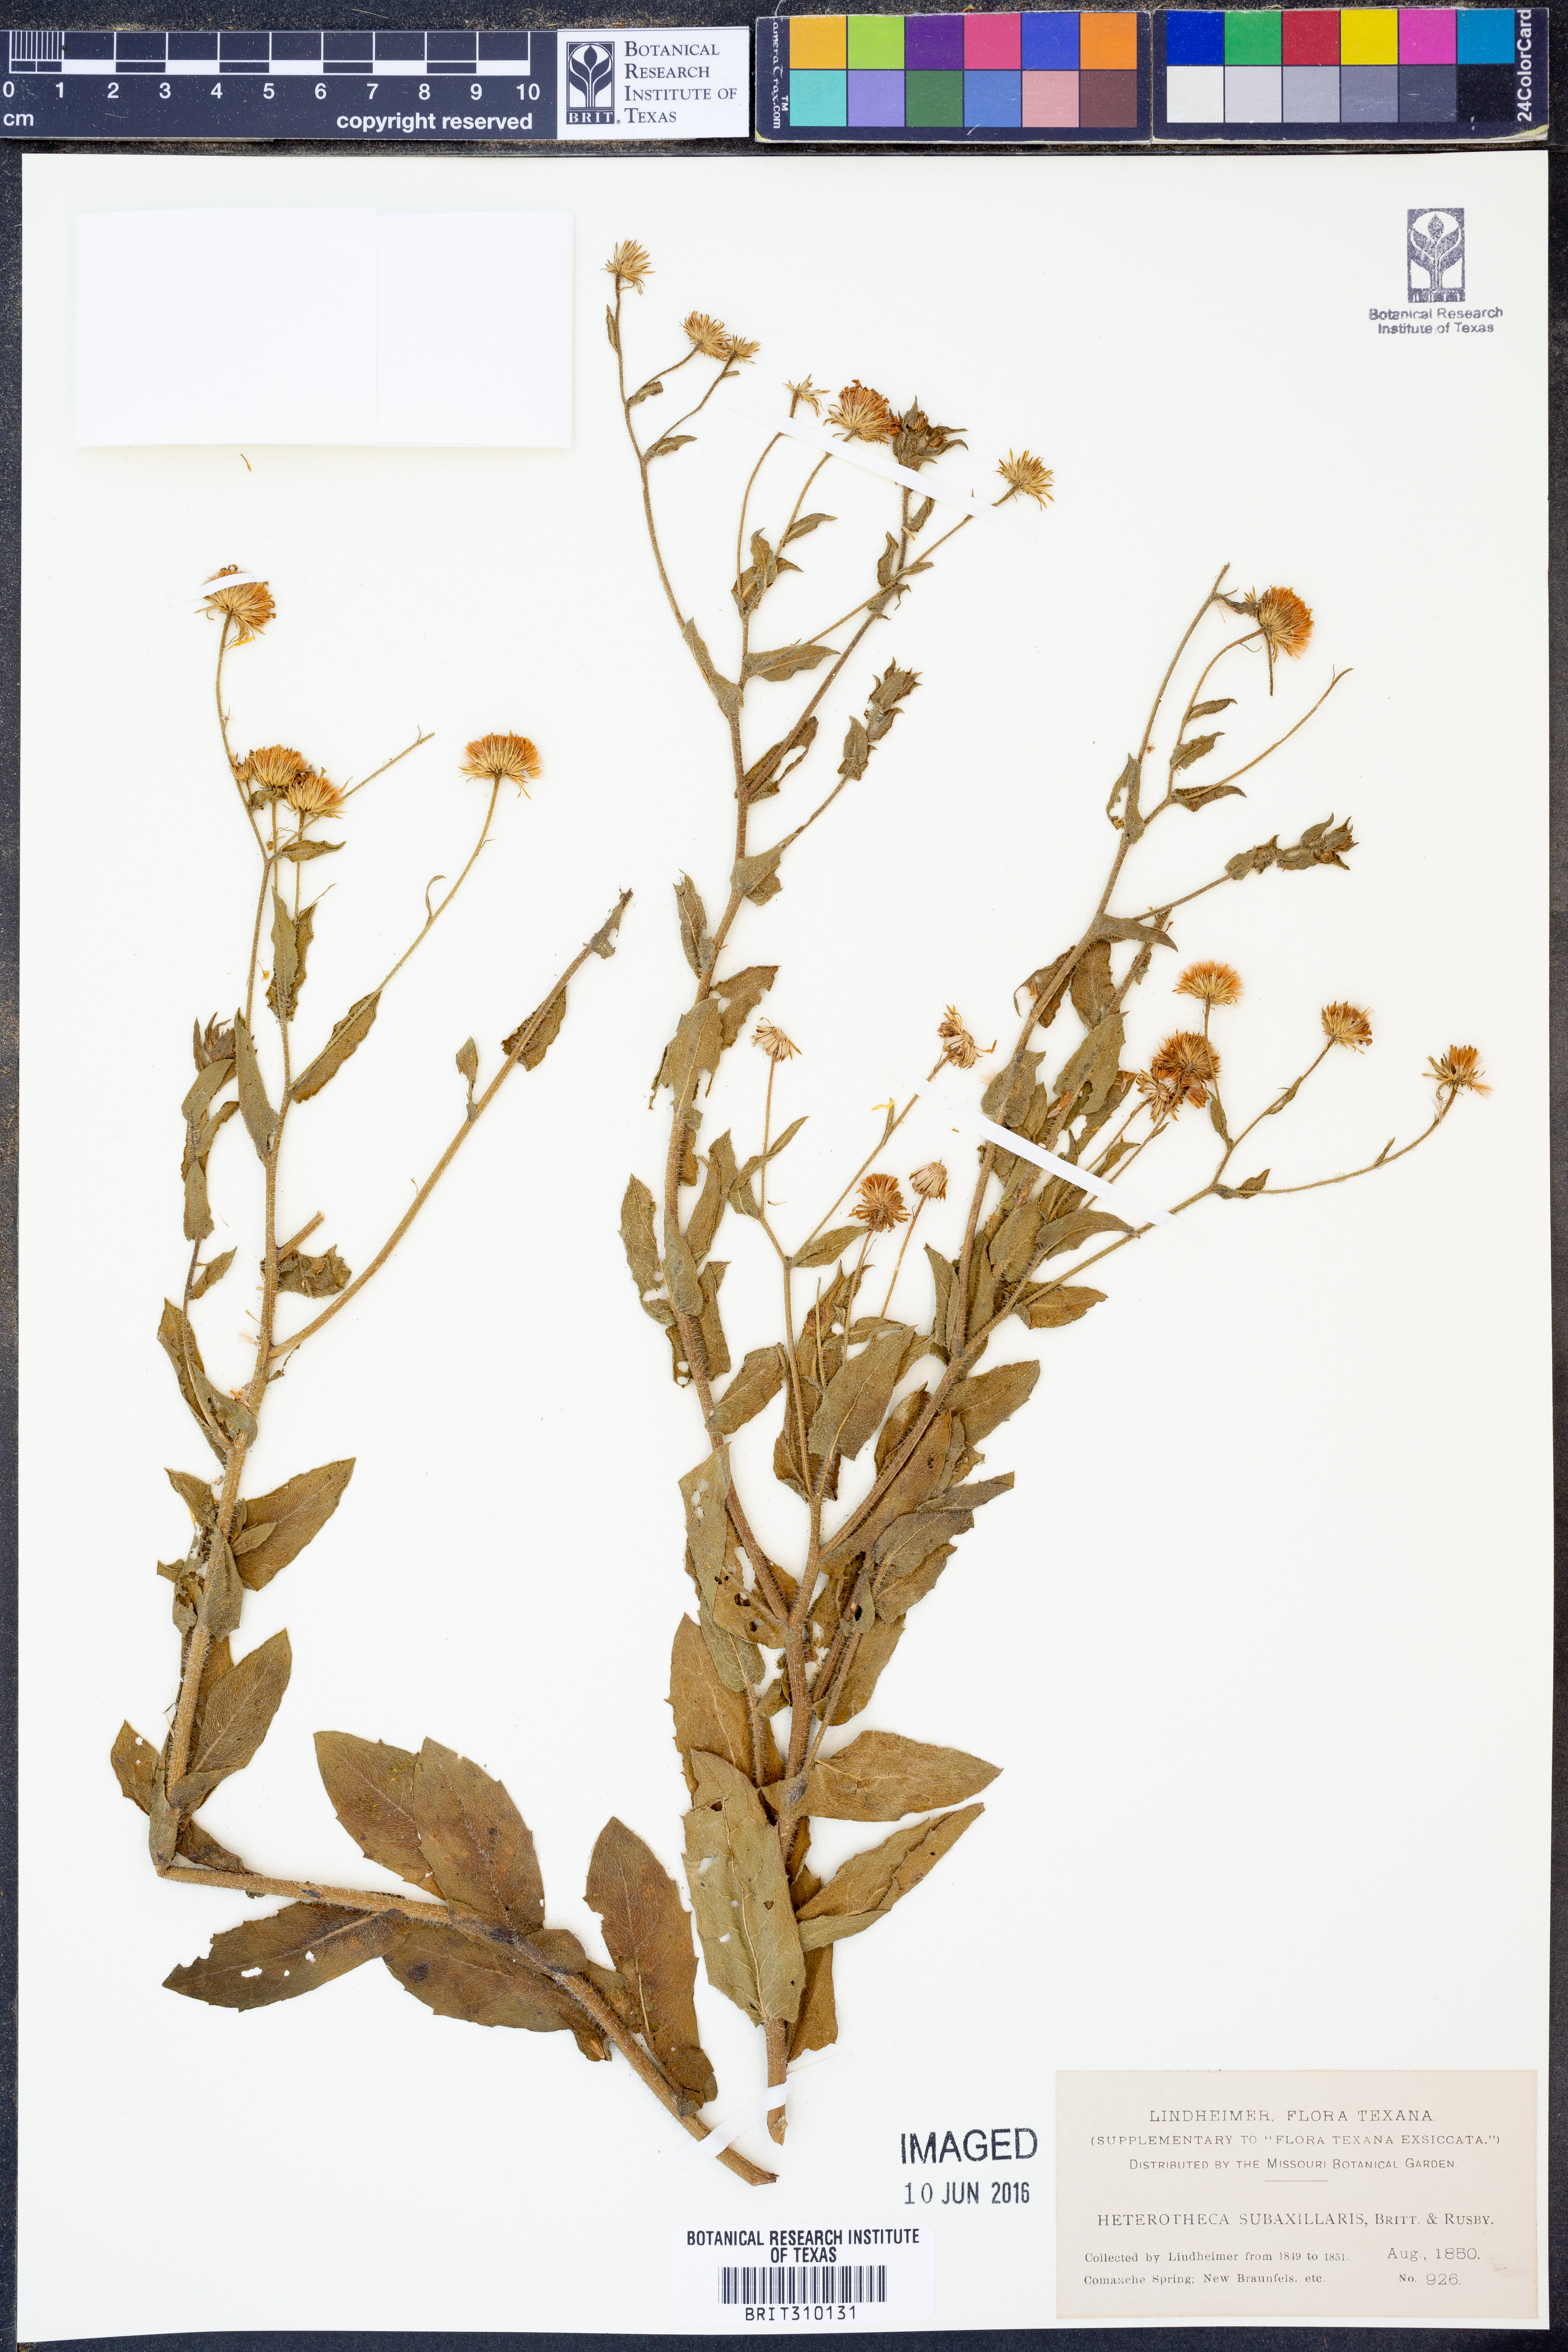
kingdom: Plantae
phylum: Tracheophyta
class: Magnoliopsida
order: Asterales
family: Asteraceae
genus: Heterotheca
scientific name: Heterotheca subaxillaris
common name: Camphorweed
